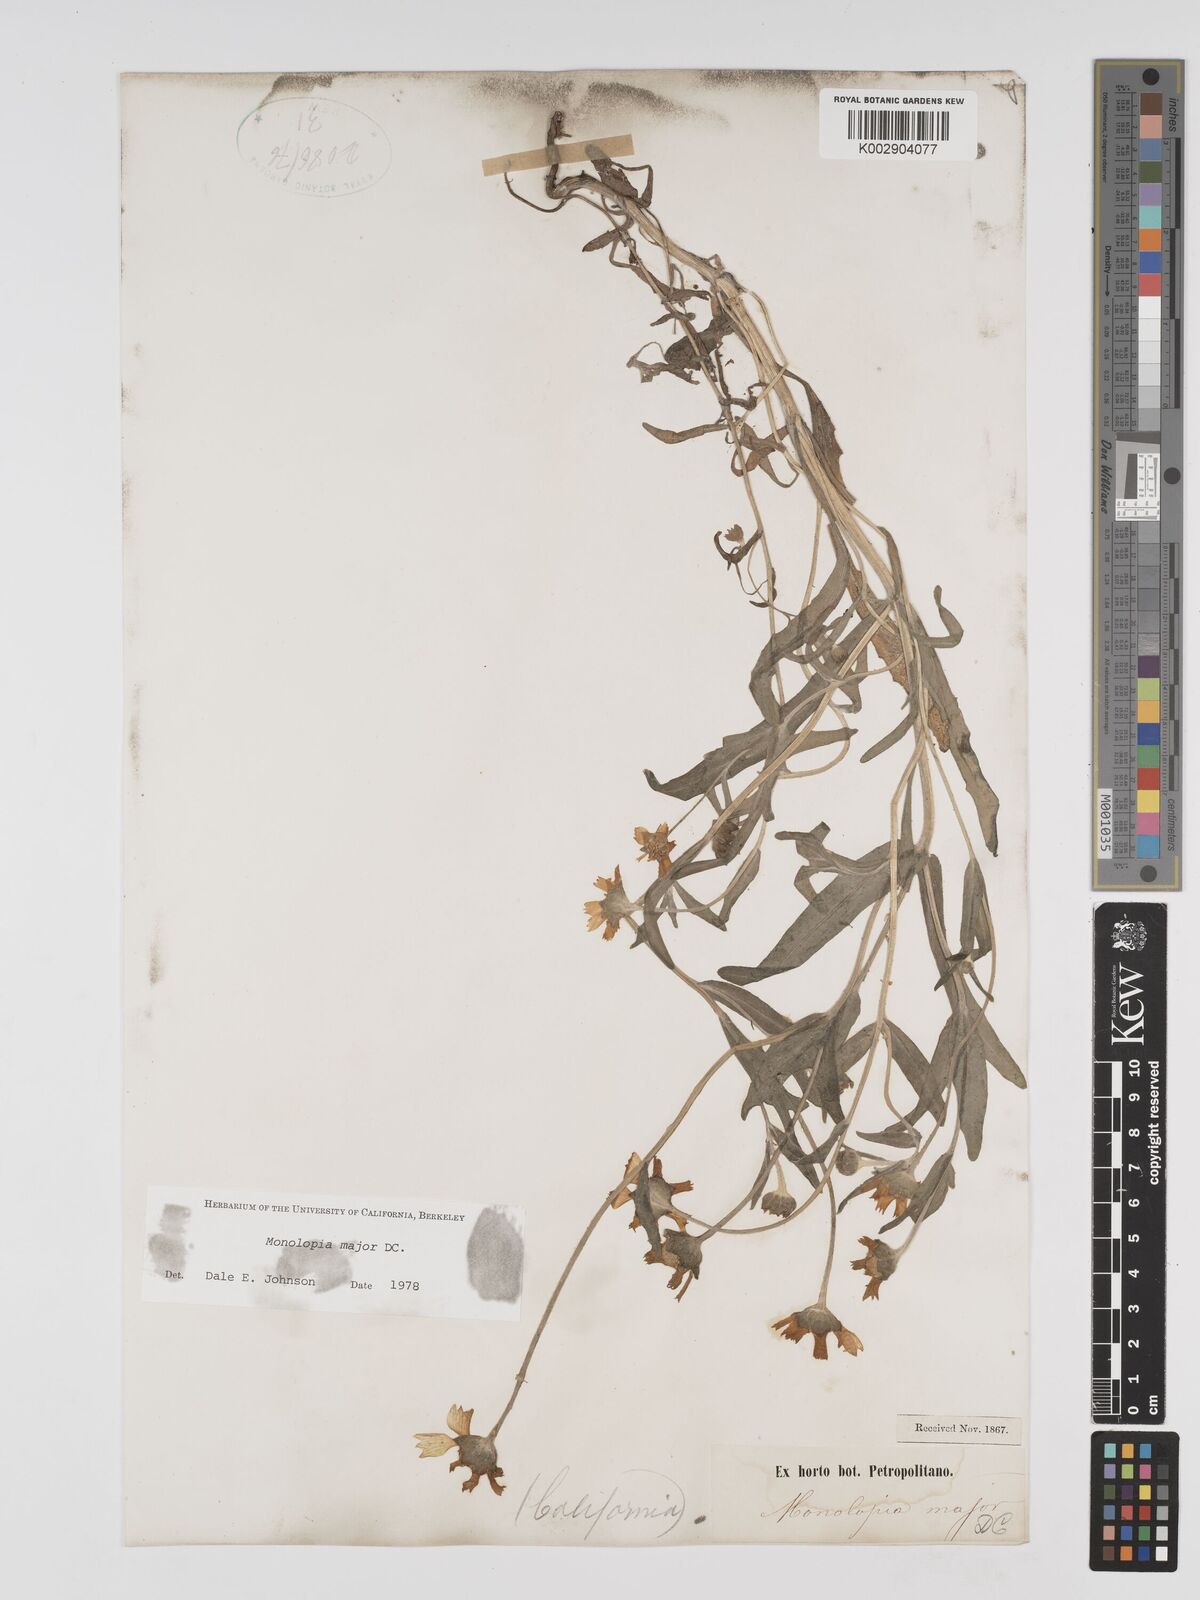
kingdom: Plantae
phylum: Tracheophyta
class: Magnoliopsida
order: Asterales
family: Asteraceae
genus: Monolopia
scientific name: Monolopia major
